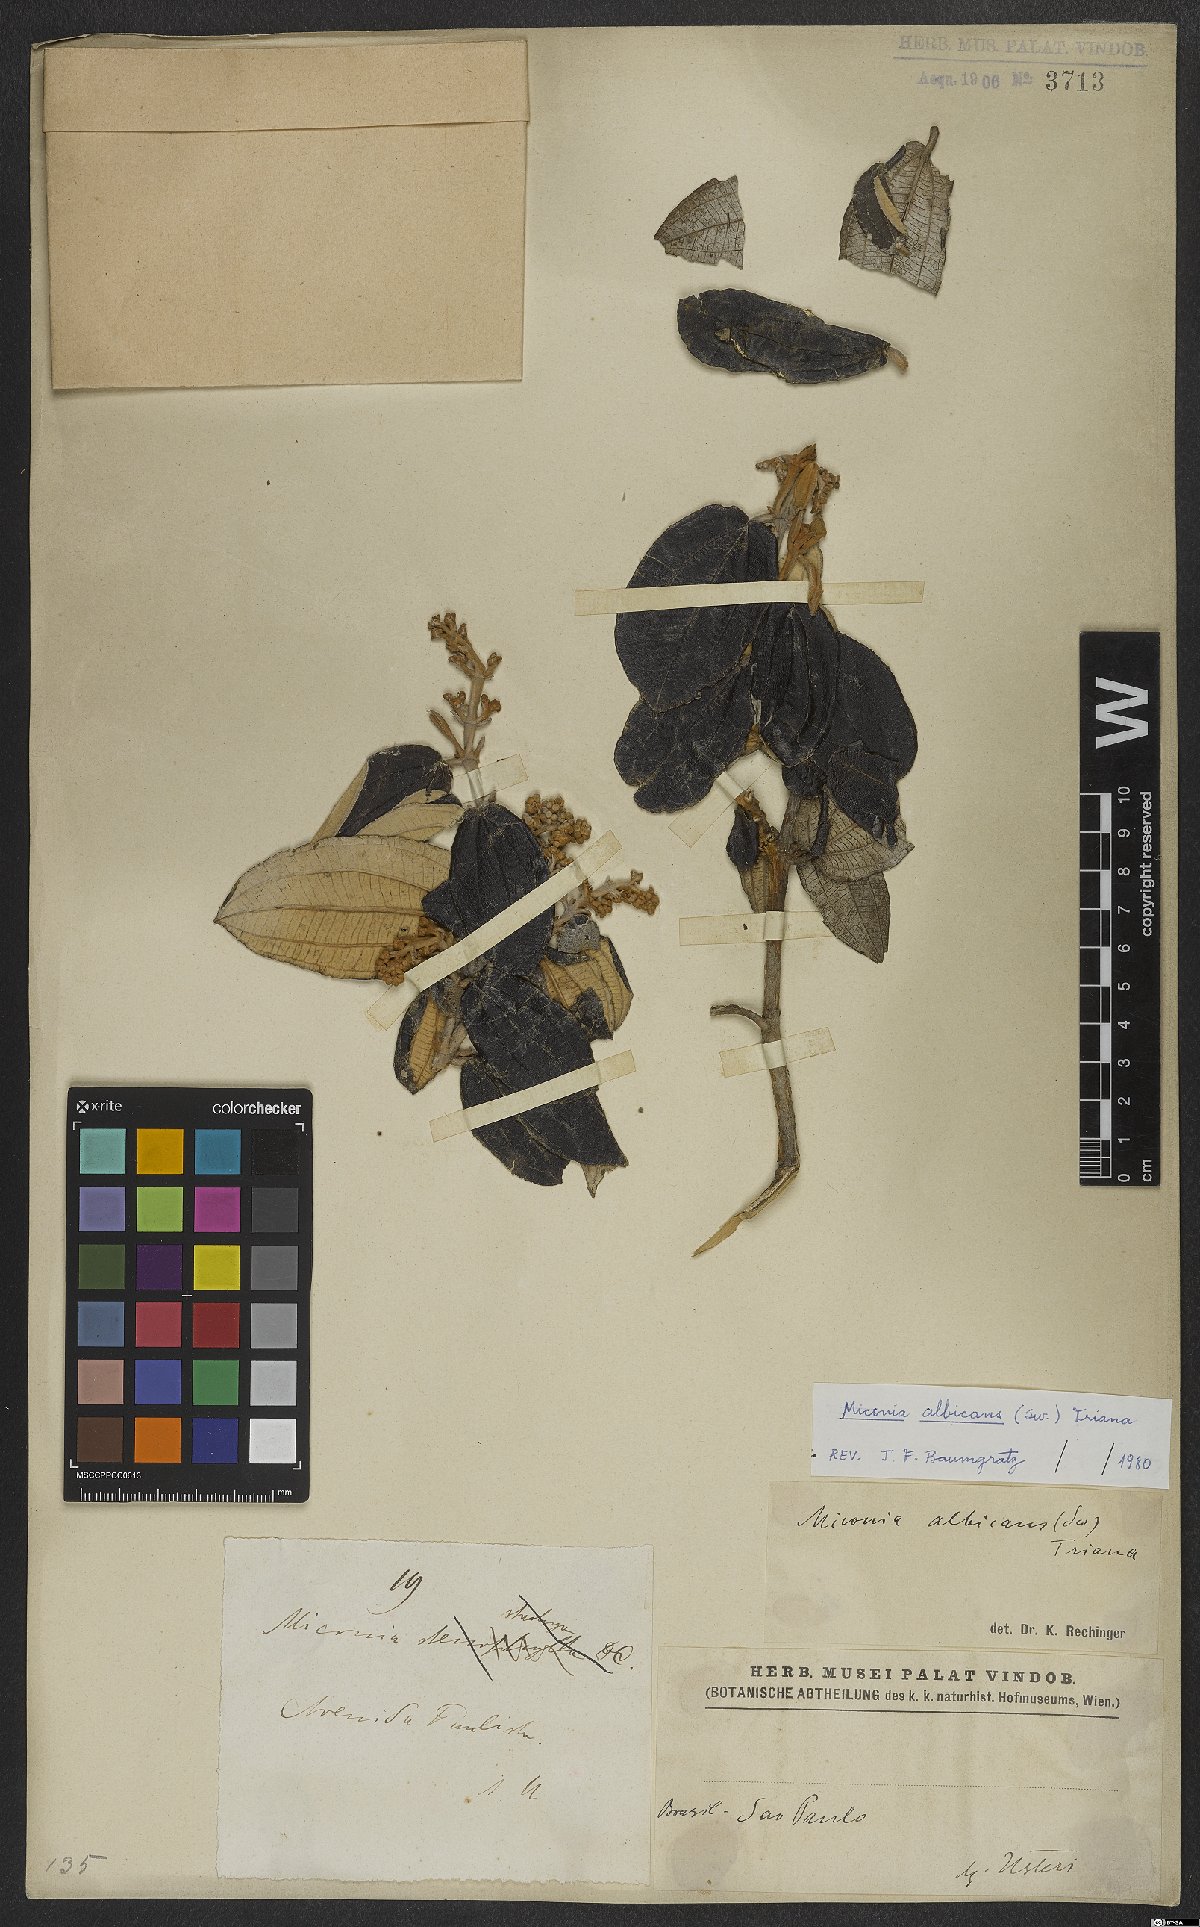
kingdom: Plantae
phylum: Tracheophyta
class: Magnoliopsida
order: Myrtales
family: Melastomataceae
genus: Miconia
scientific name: Miconia albicans
